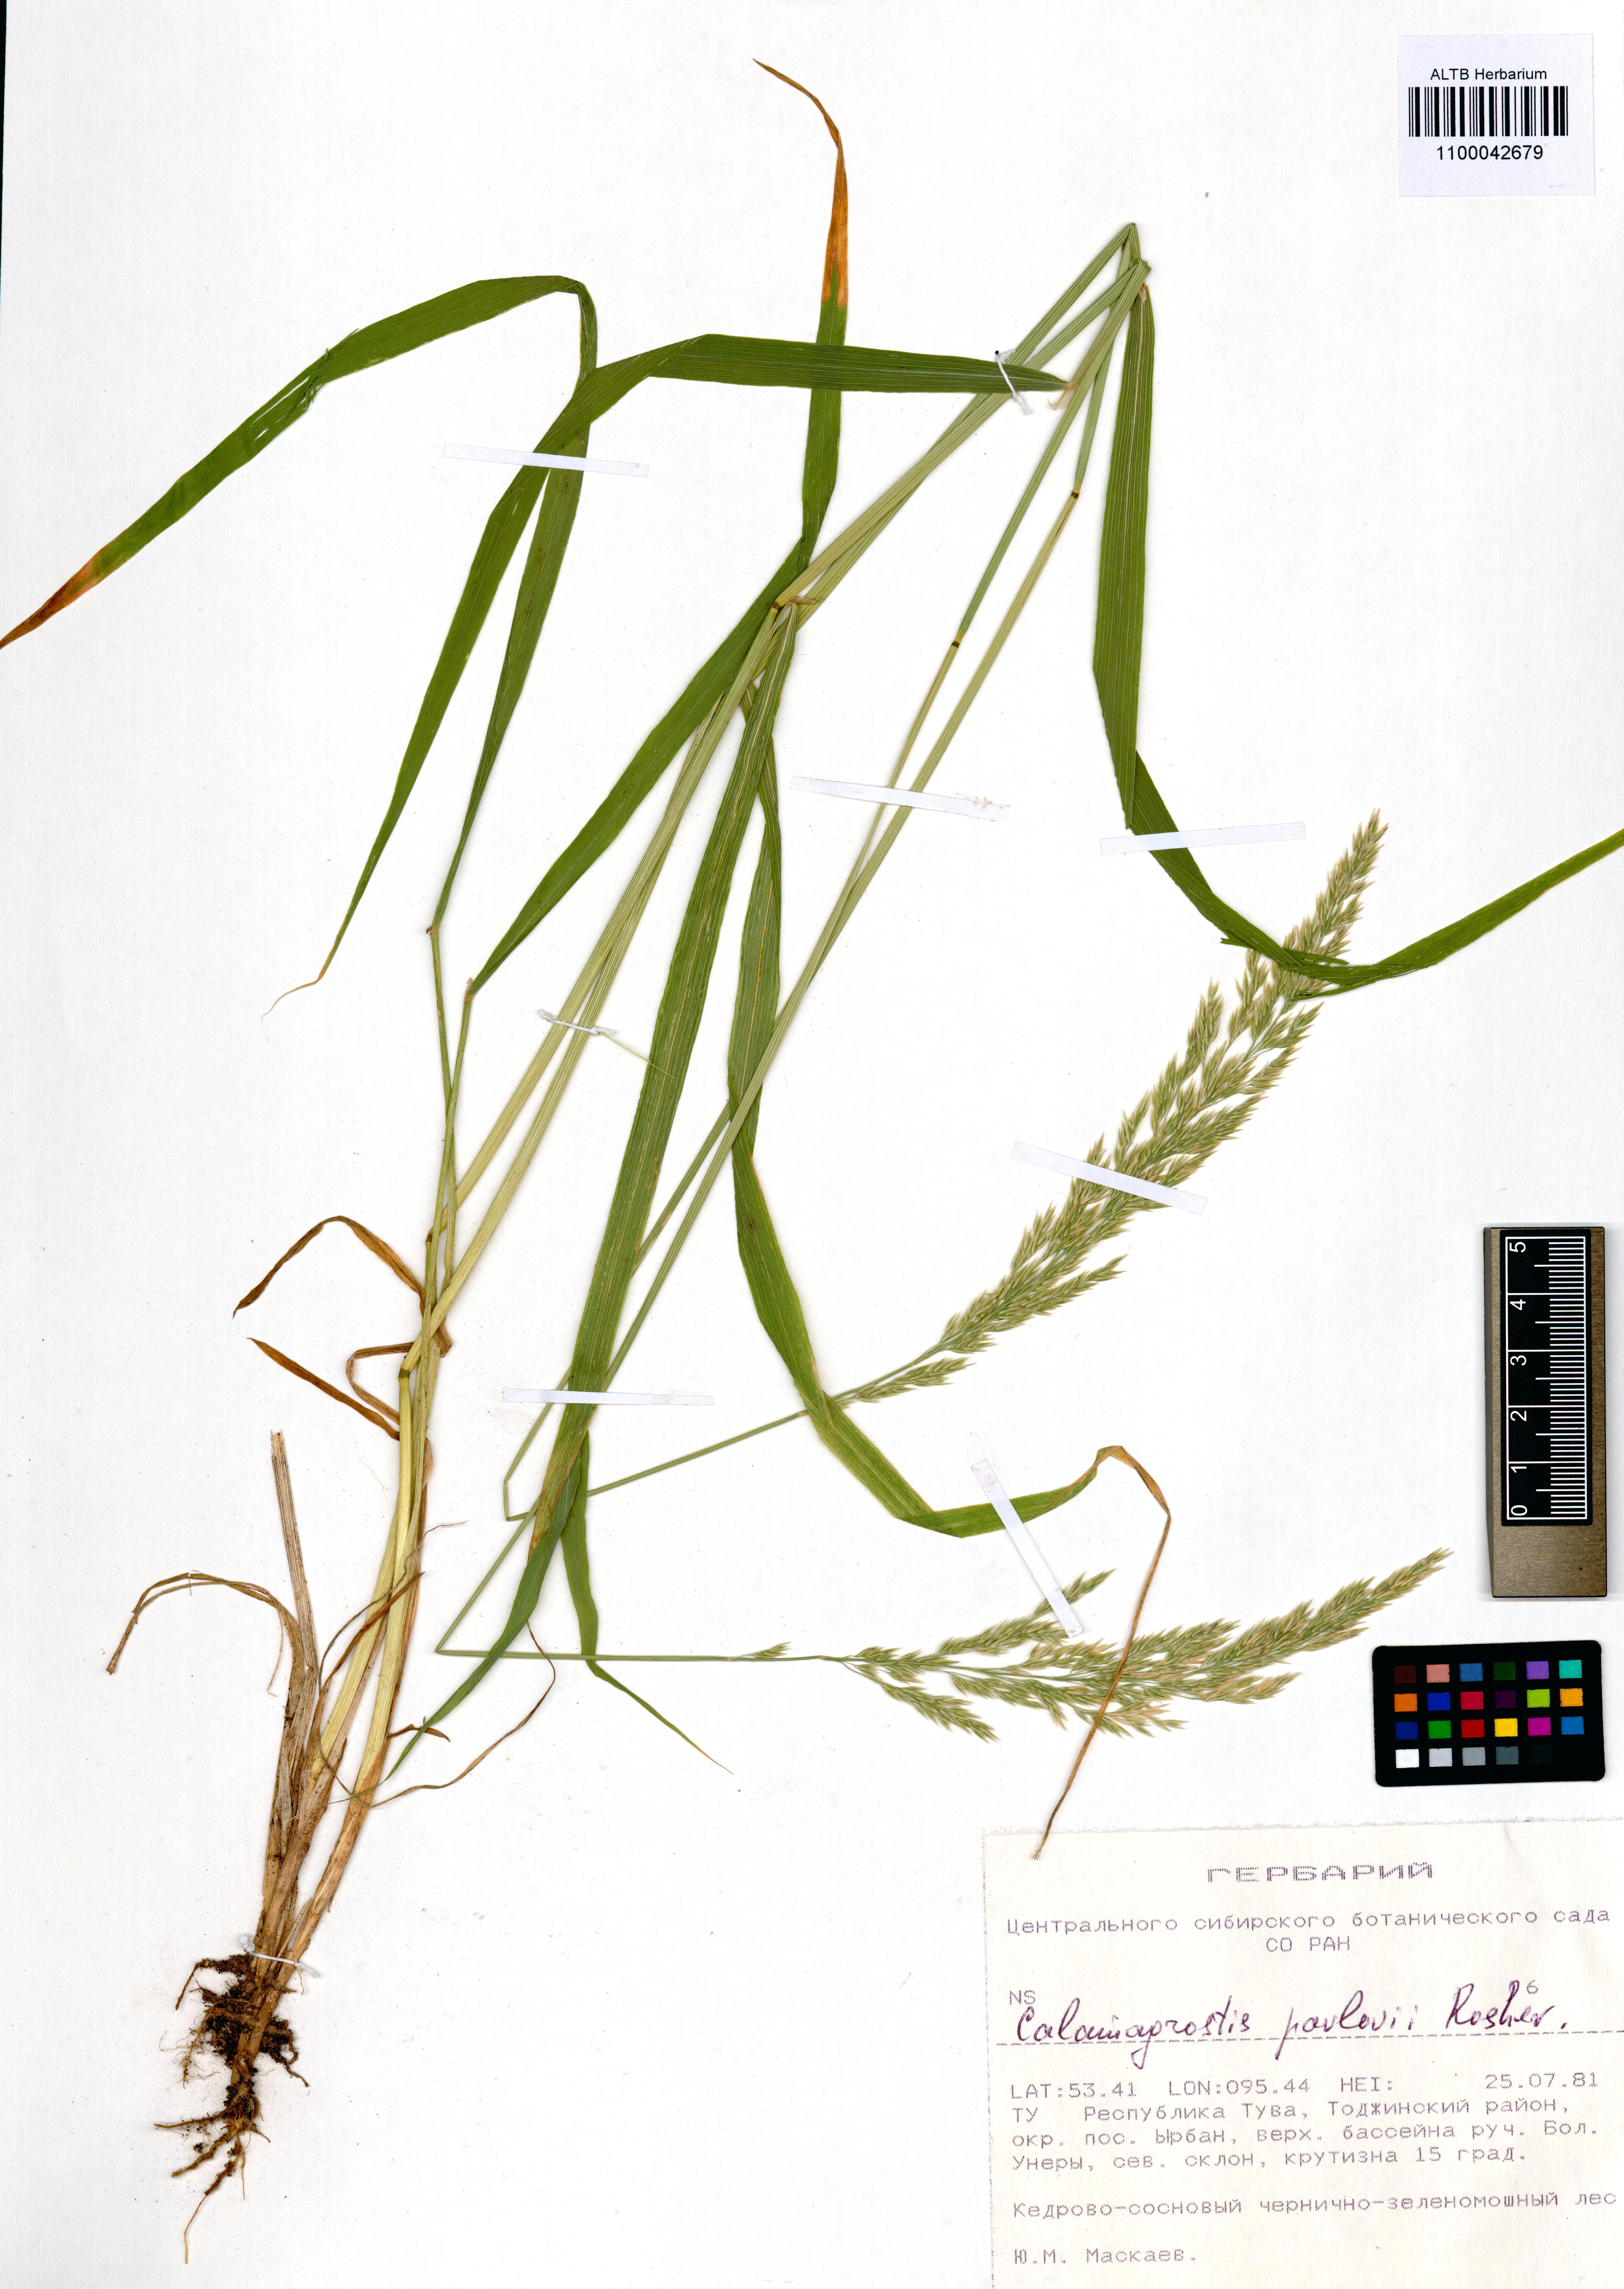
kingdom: Plantae
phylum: Tracheophyta
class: Liliopsida
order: Poales
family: Poaceae
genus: Calamagrostis
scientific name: Calamagrostis pavlovii
